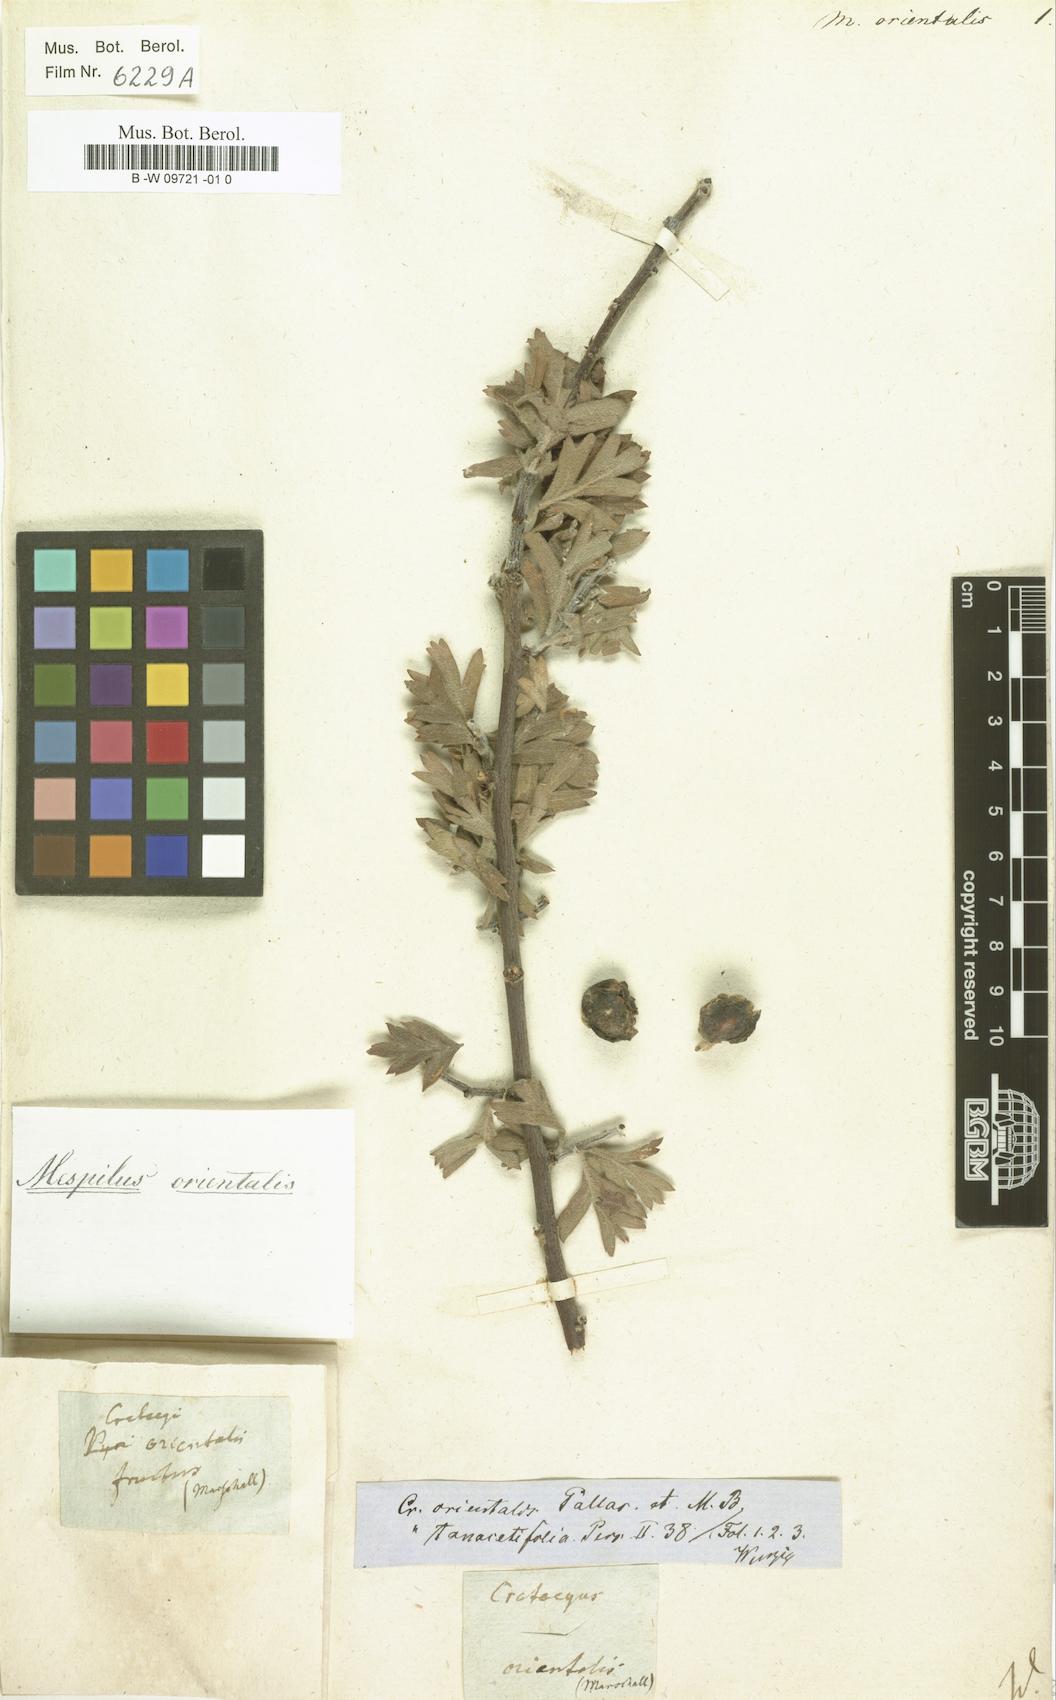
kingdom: Plantae
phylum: Tracheophyta
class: Magnoliopsida
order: Rosales
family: Rosaceae
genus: Cotoneaster
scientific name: Cotoneaster tomentosus
